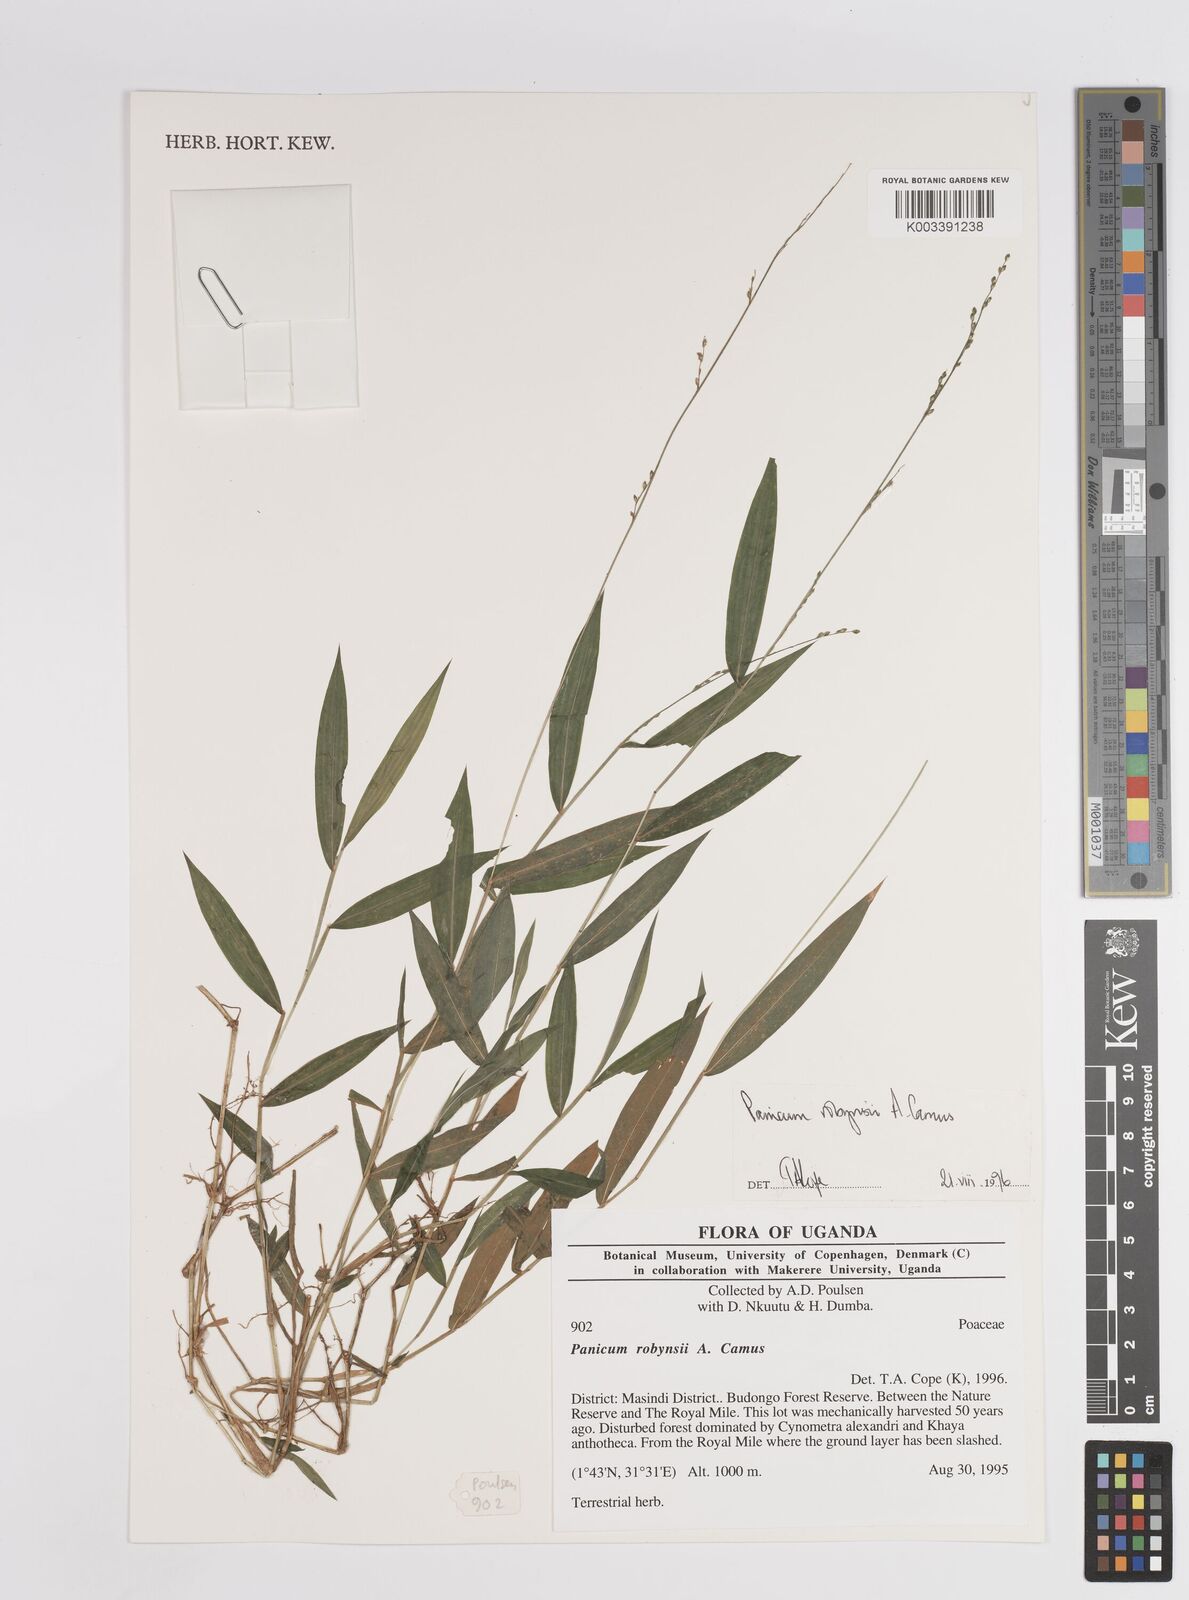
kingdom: Plantae
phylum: Tracheophyta
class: Liliopsida
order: Poales
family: Poaceae
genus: Panicum
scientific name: Panicum robynsii
